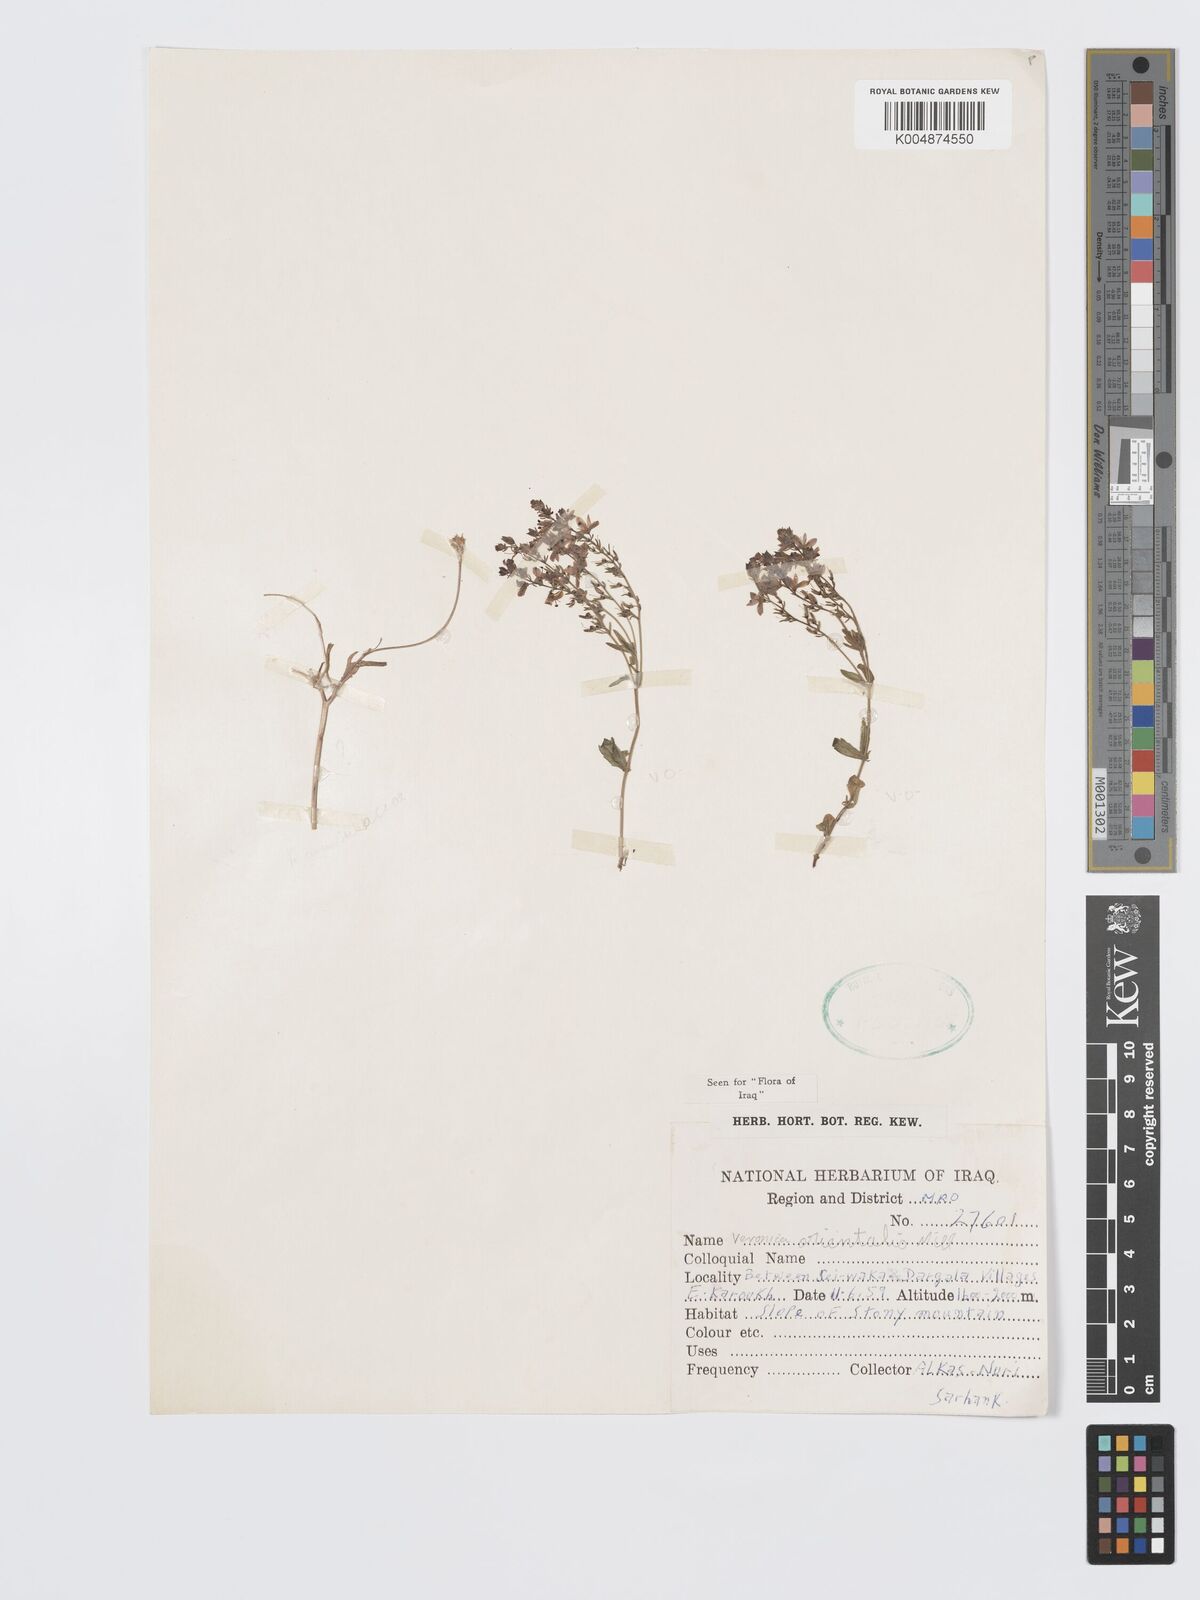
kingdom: Plantae
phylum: Tracheophyta
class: Magnoliopsida
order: Lamiales
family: Plantaginaceae
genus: Veronica
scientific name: Veronica
